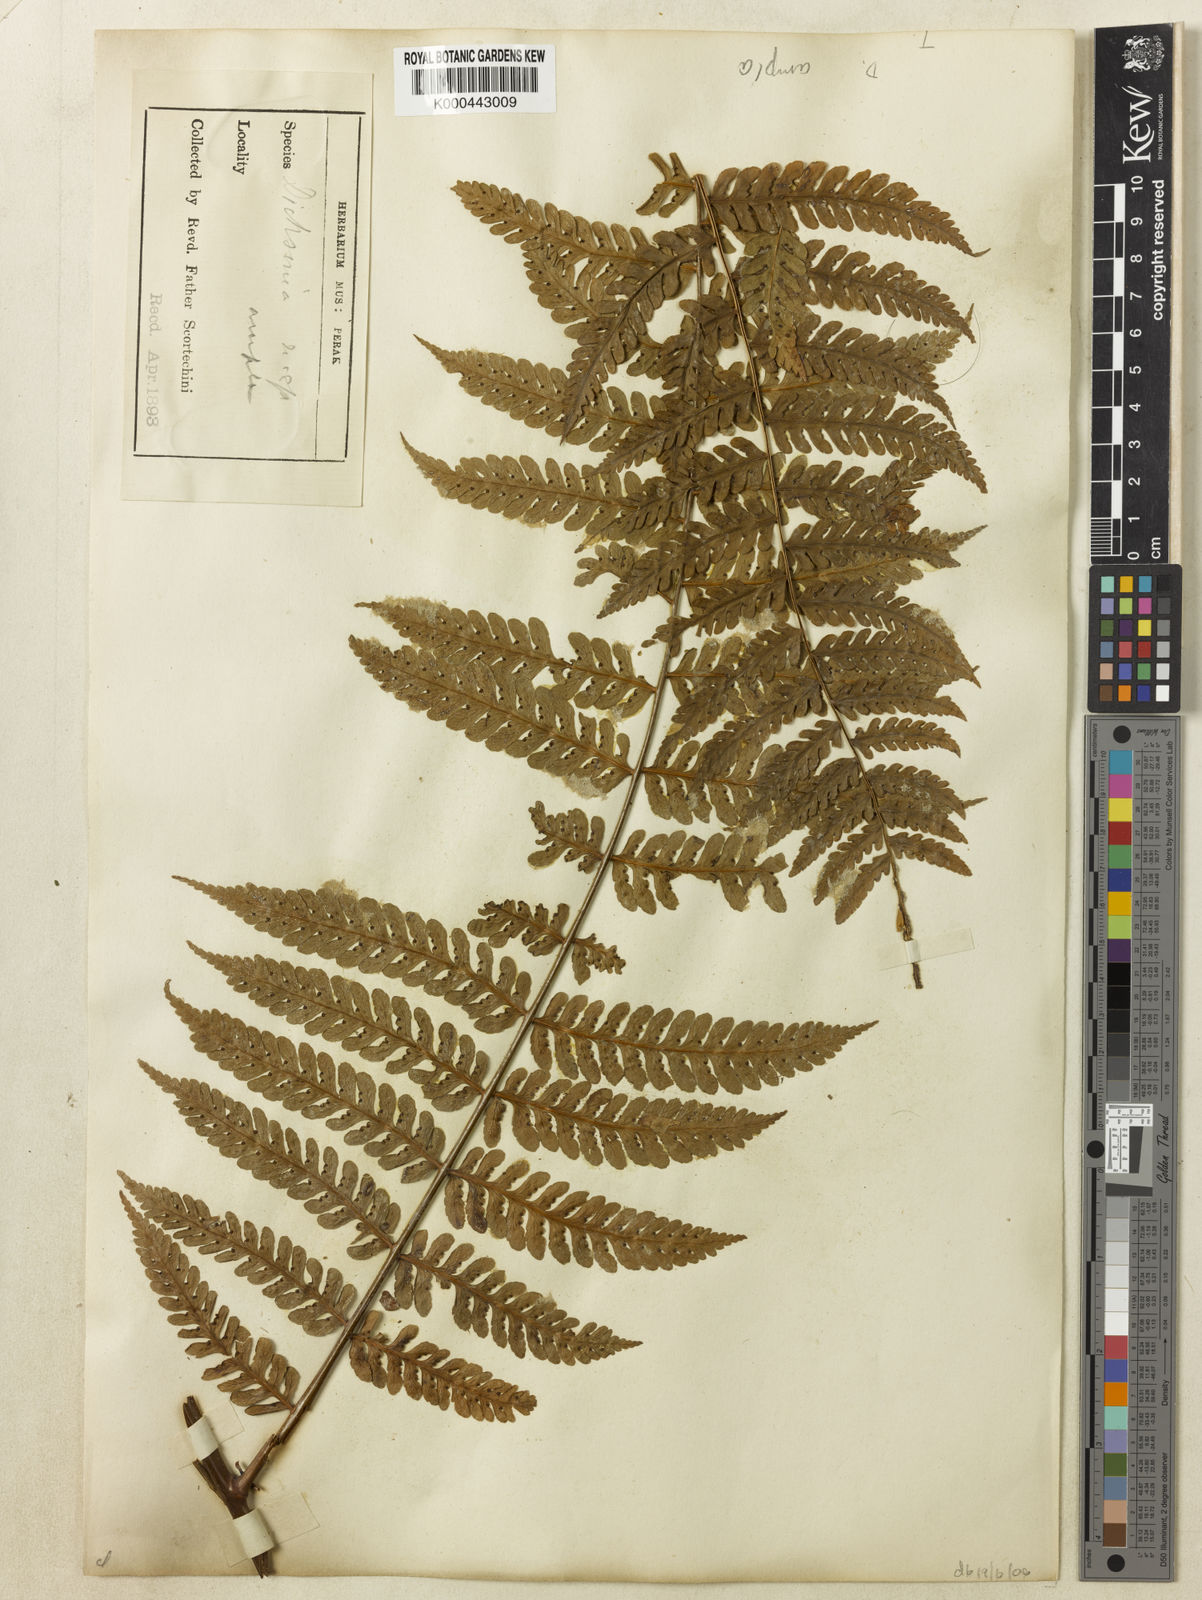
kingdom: Plantae
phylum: Tracheophyta
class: Polypodiopsida
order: Polypodiales
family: Dennstaedtiaceae
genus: Dennstaedtia
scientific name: Dennstaedtia ampla
